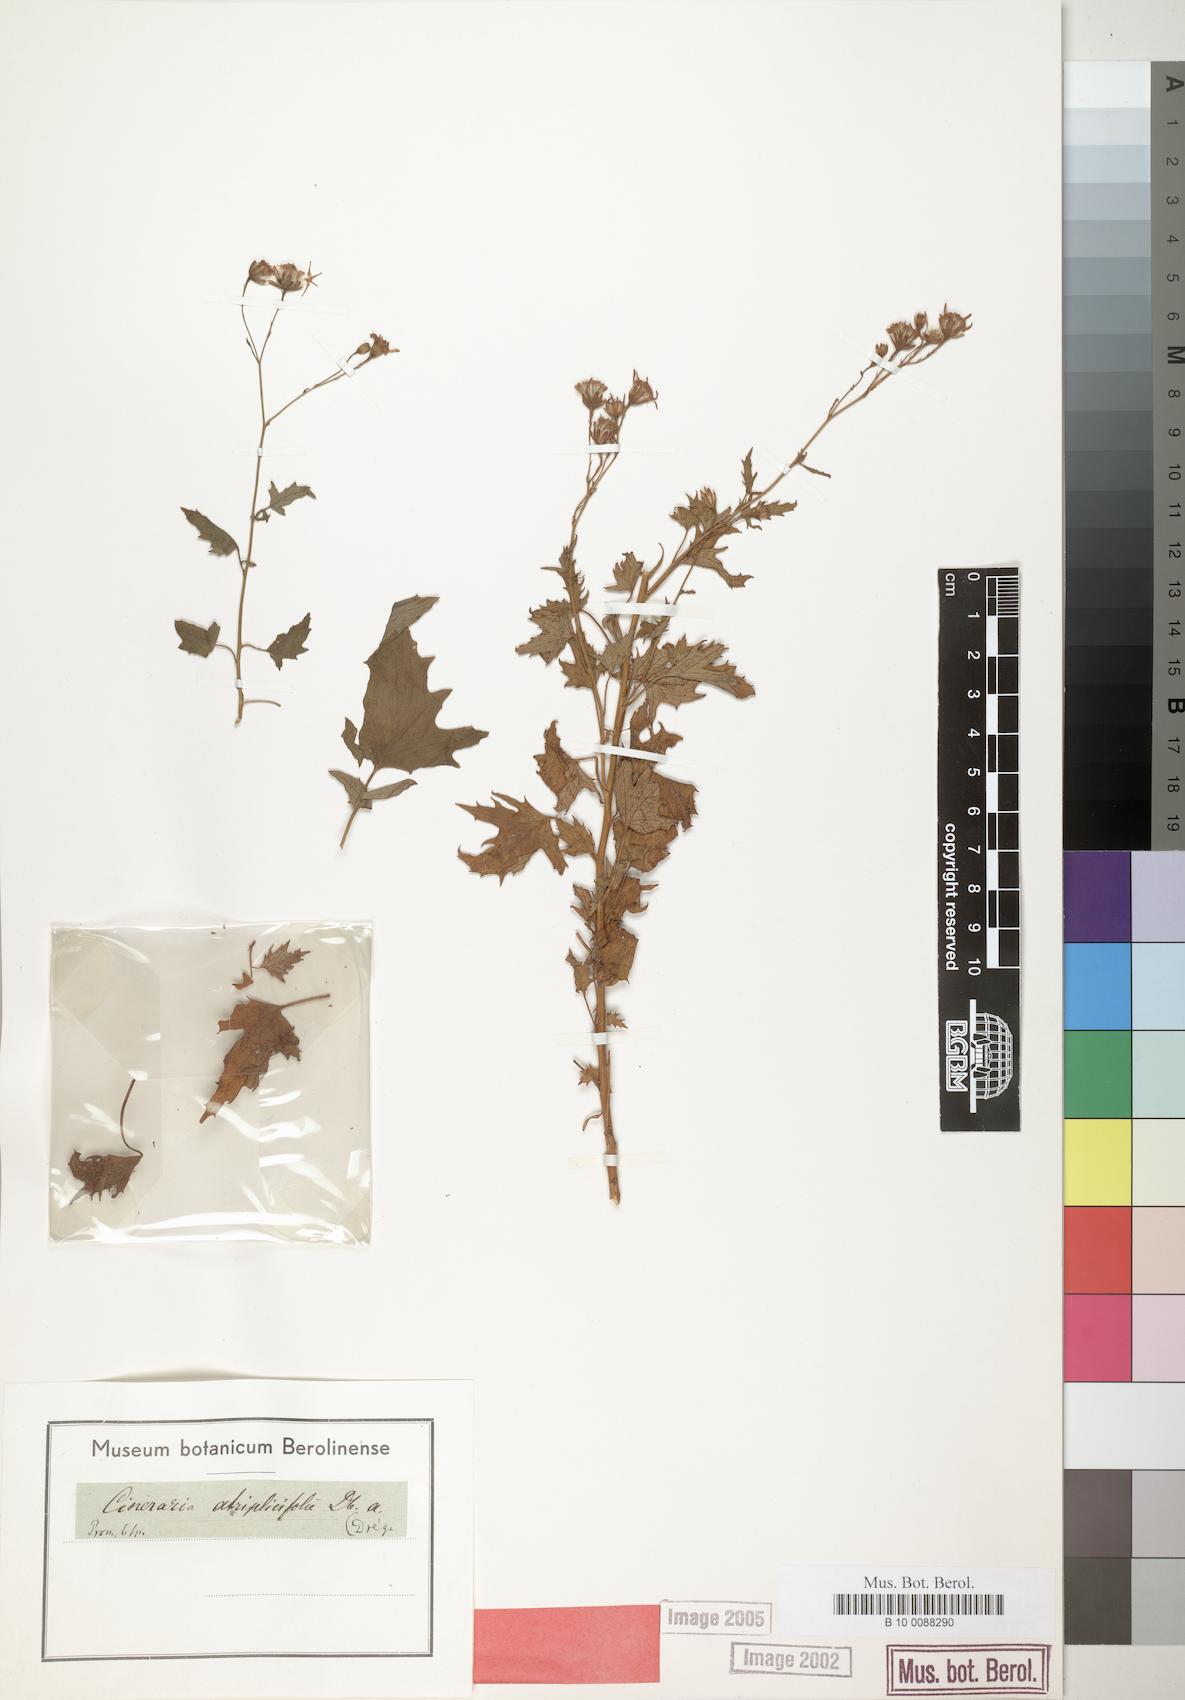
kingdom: Plantae
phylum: Tracheophyta
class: Magnoliopsida
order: Asterales
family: Asteraceae
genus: Cineraria
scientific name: Cineraria atriplicifolia
